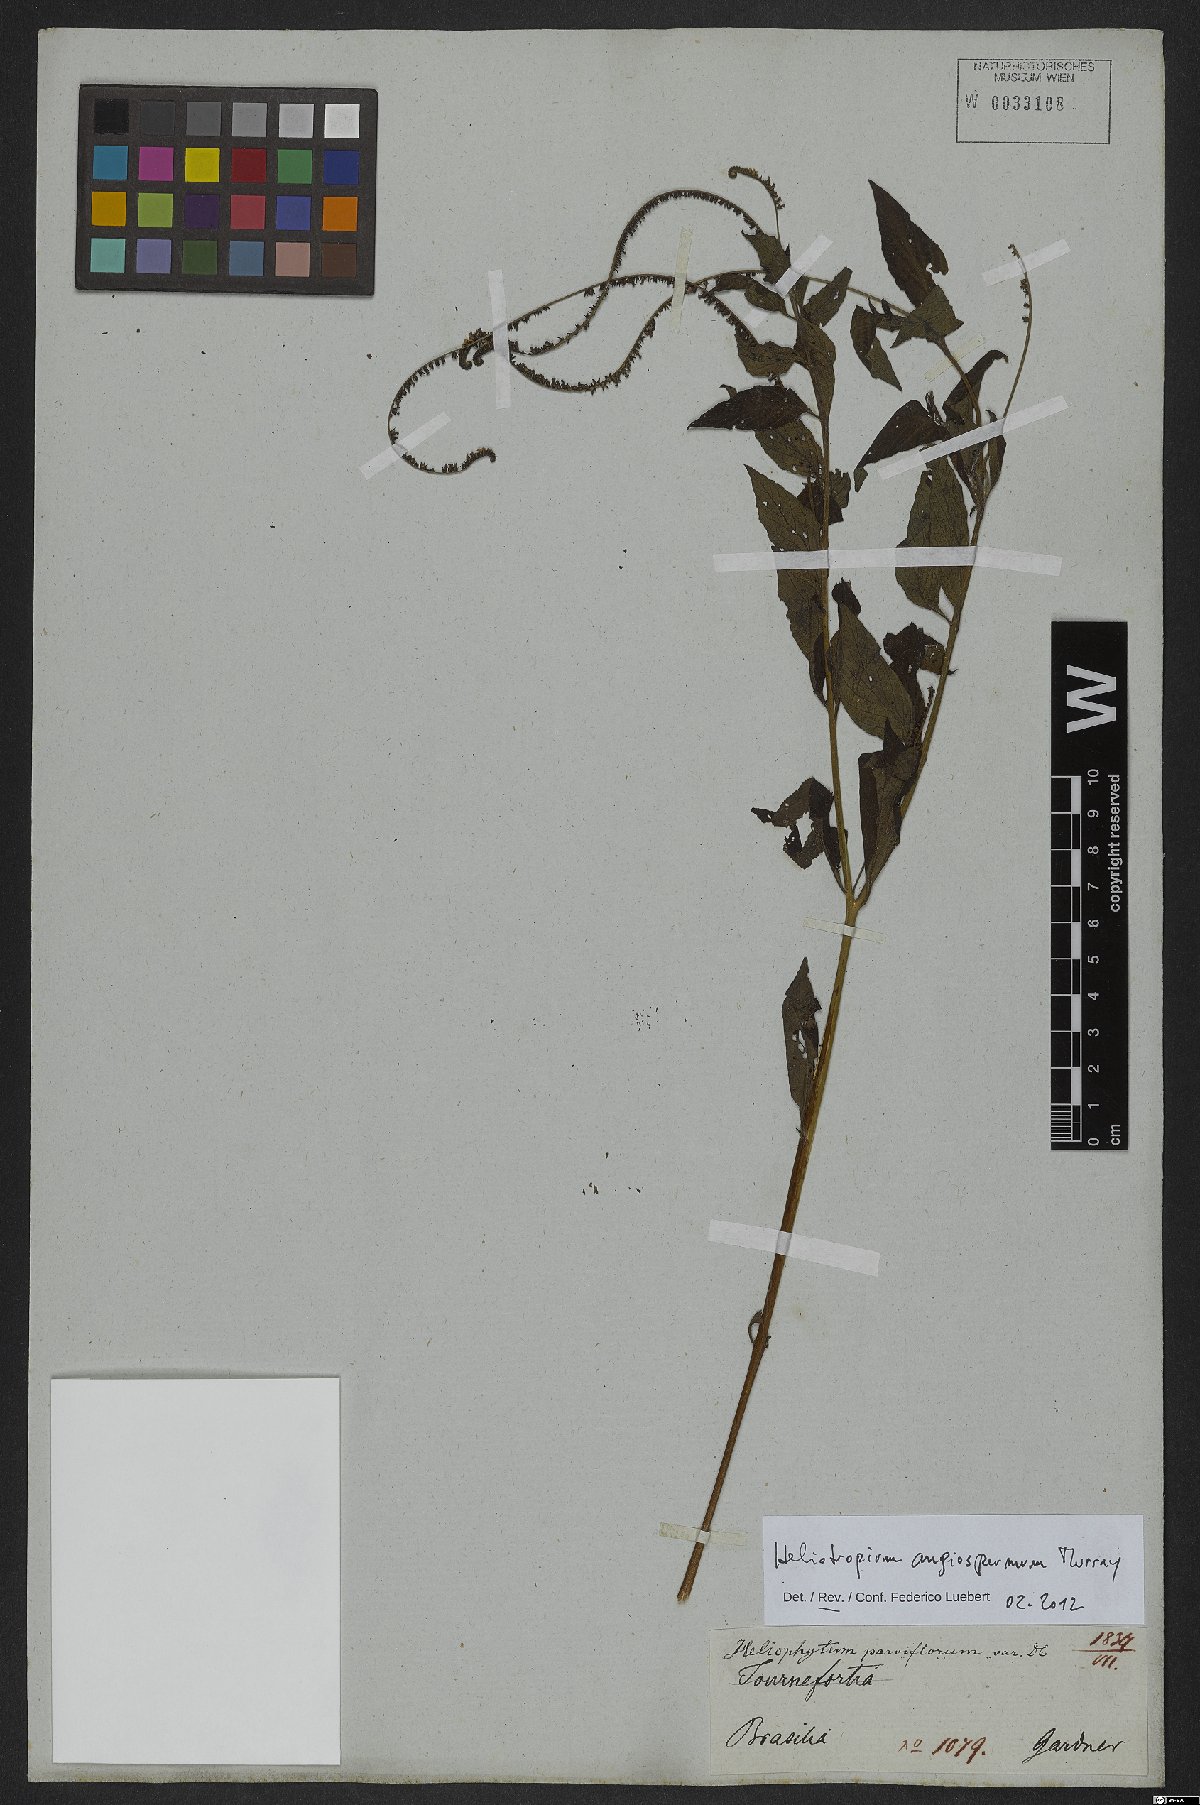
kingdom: Plantae
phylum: Tracheophyta
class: Magnoliopsida
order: Boraginales
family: Heliotropiaceae
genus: Heliotropium
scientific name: Heliotropium angiospermum
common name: Eye bright
